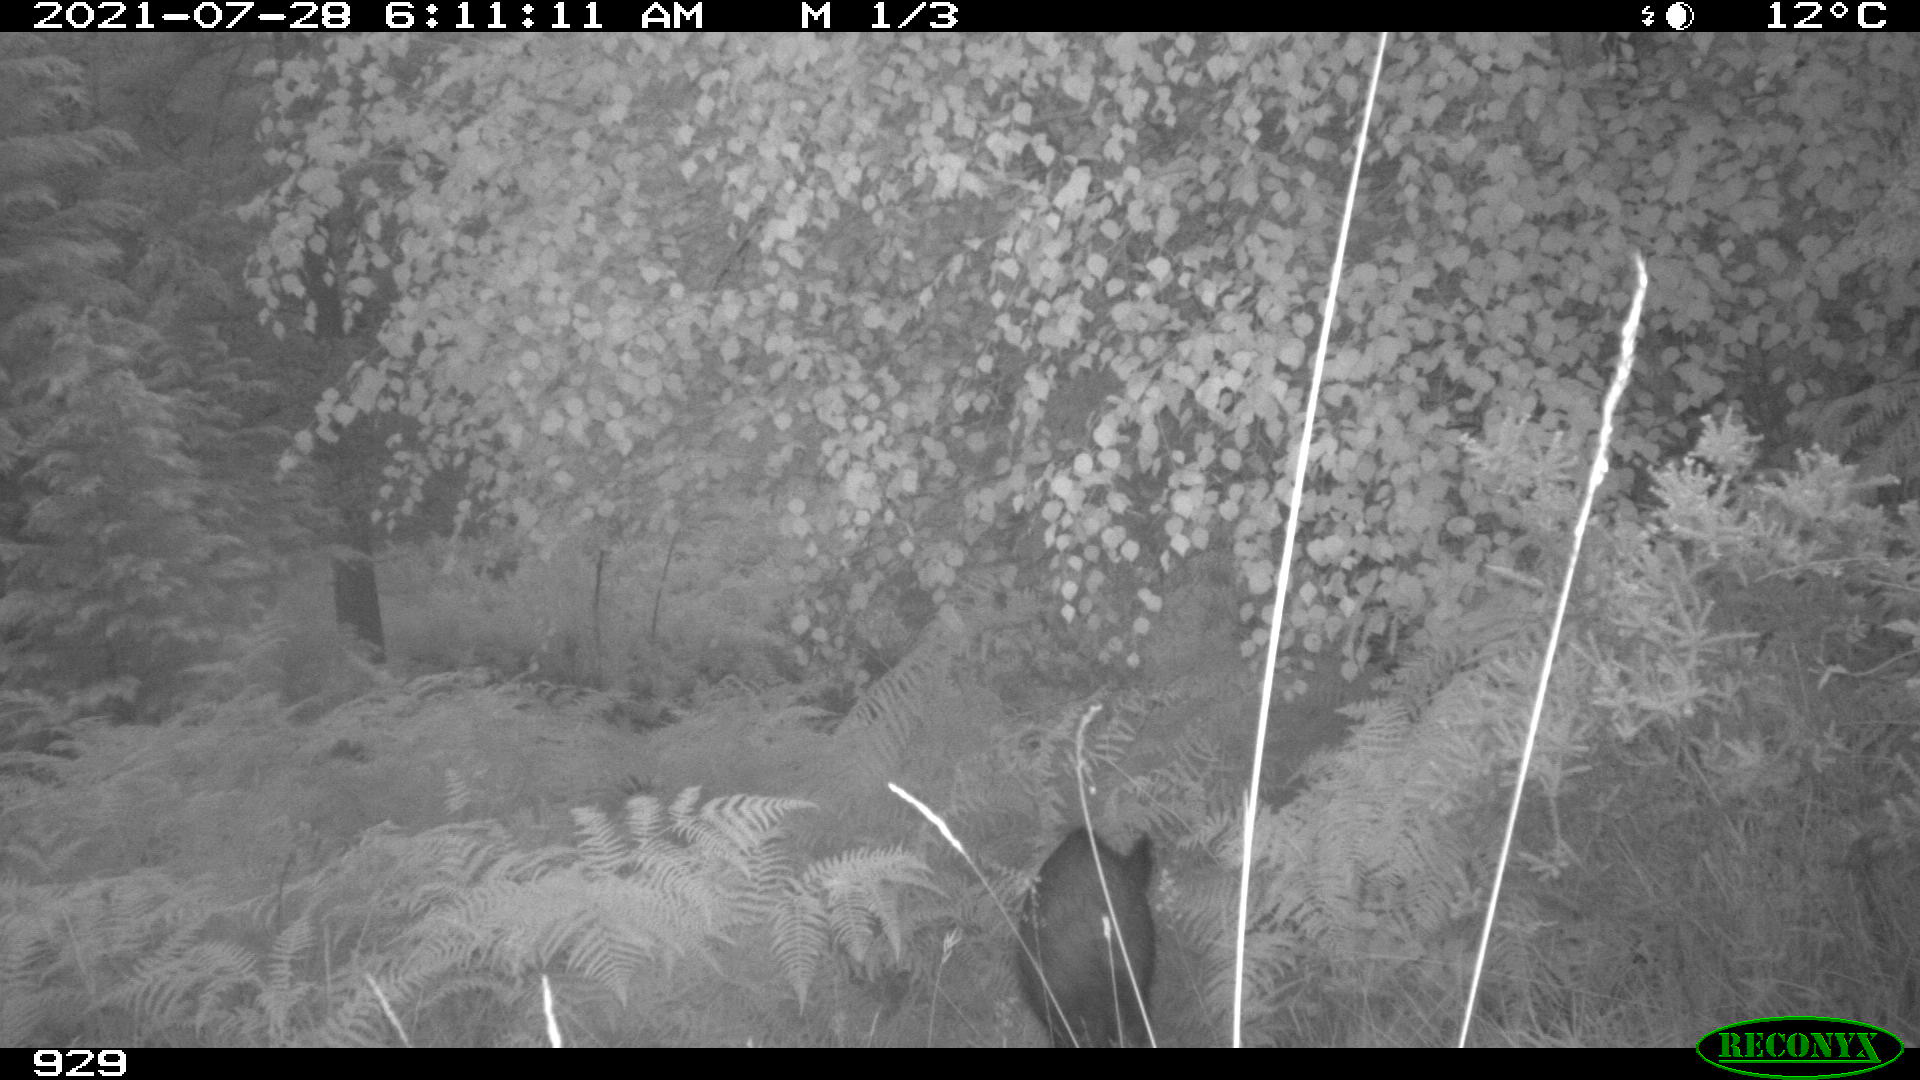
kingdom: Animalia
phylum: Chordata
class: Mammalia
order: Artiodactyla
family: Suidae
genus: Sus
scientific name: Sus scrofa
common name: Wild boar
